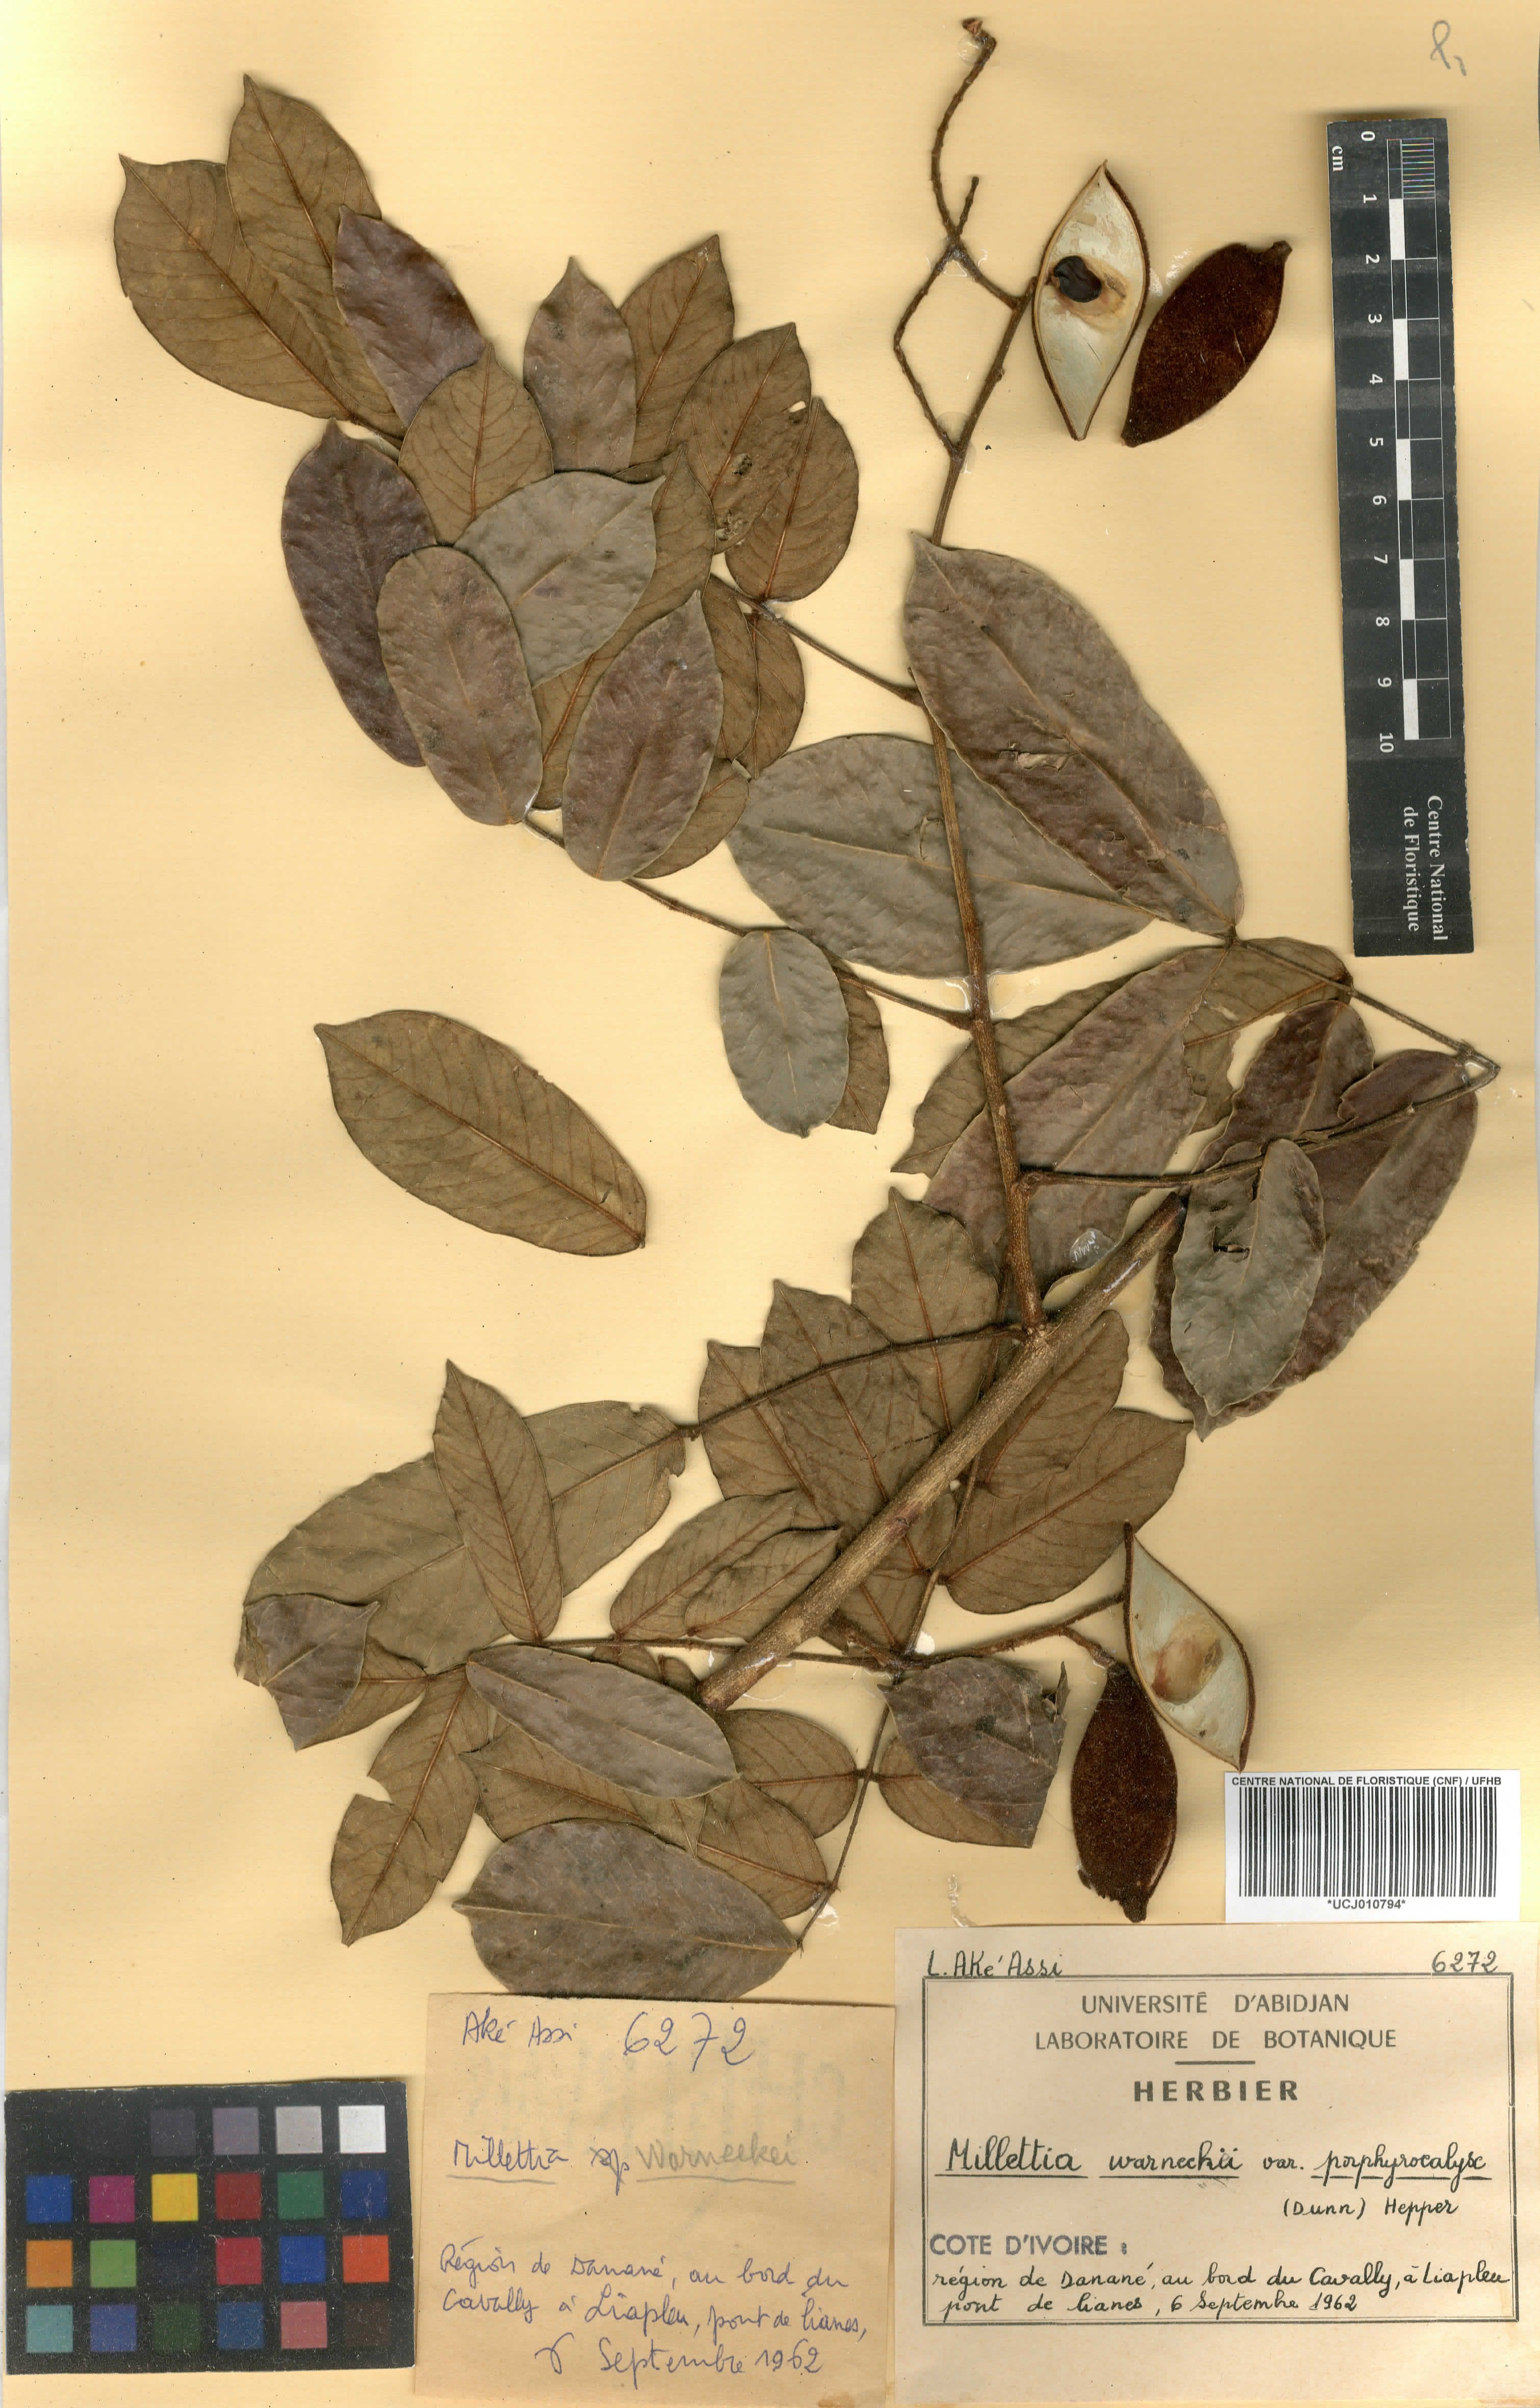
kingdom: Plantae
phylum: Tracheophyta
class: Magnoliopsida
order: Fabales
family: Fabaceae
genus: Millettia
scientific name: Millettia warneckei
